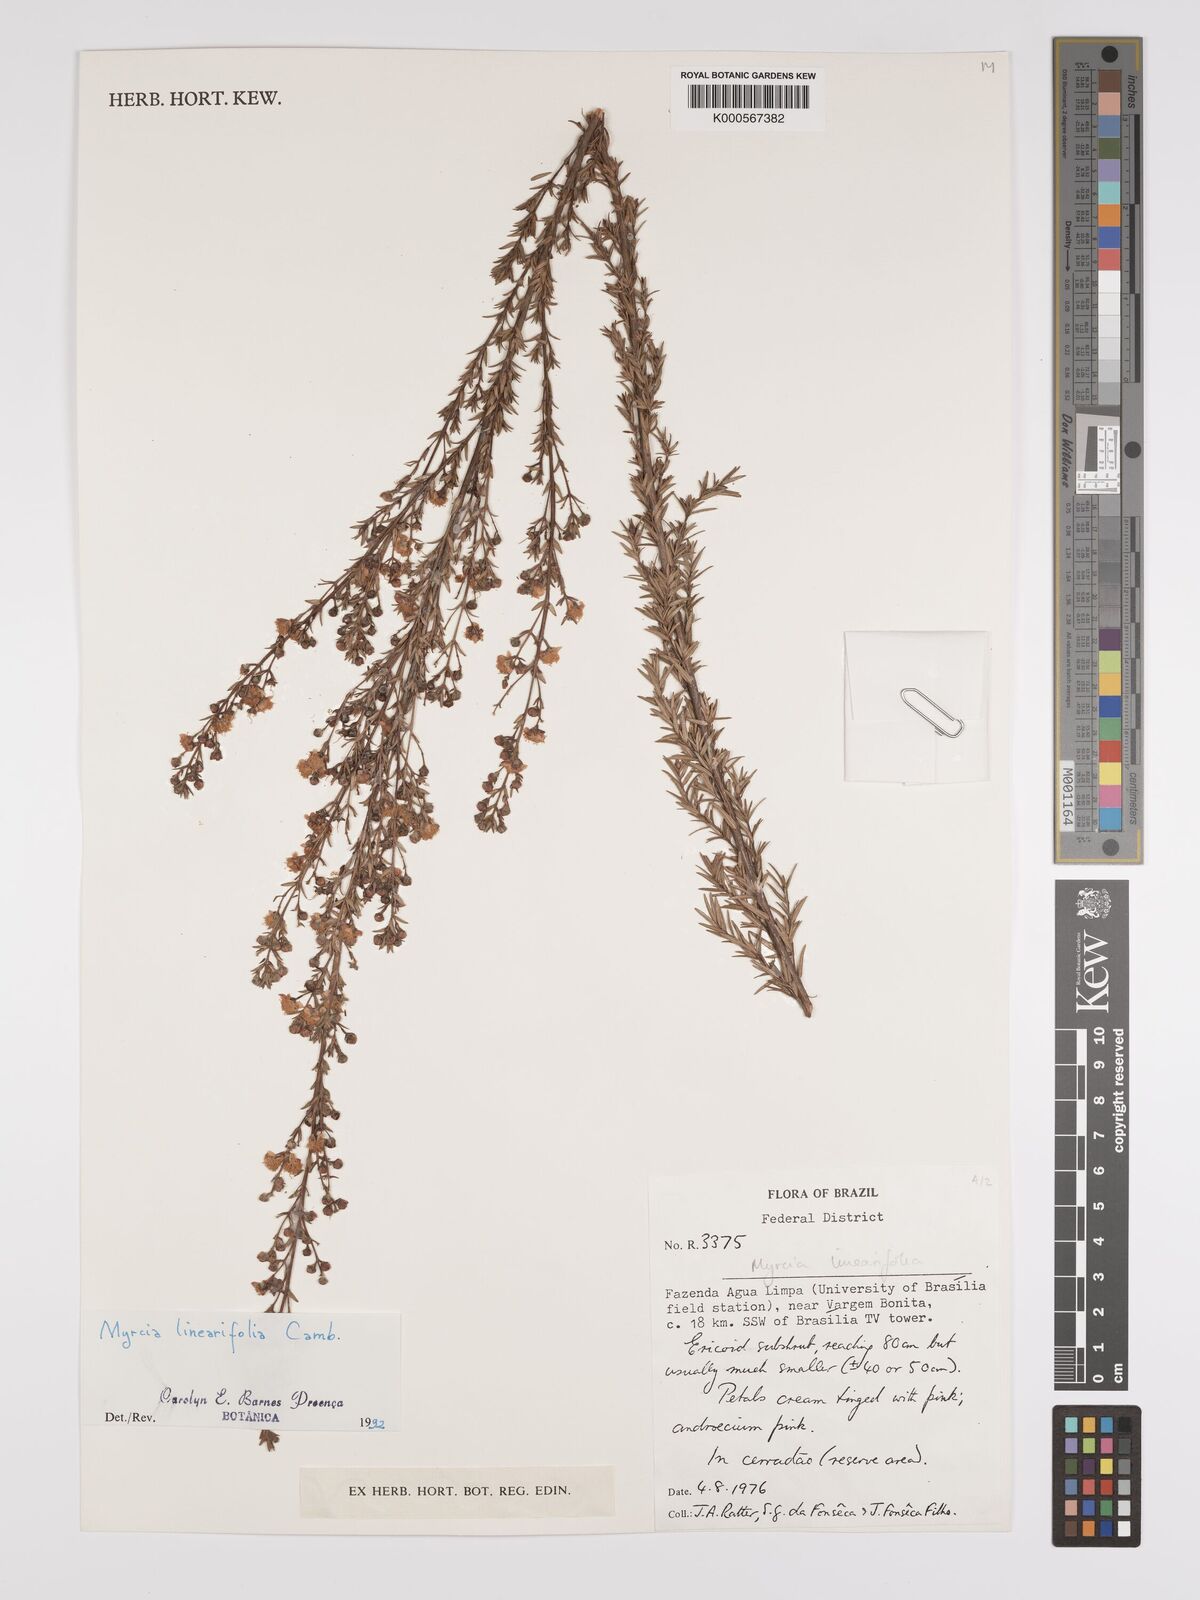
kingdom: Plantae
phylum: Tracheophyta
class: Magnoliopsida
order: Myrtales
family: Myrtaceae
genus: Myrcia
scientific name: Myrcia linearifolia
